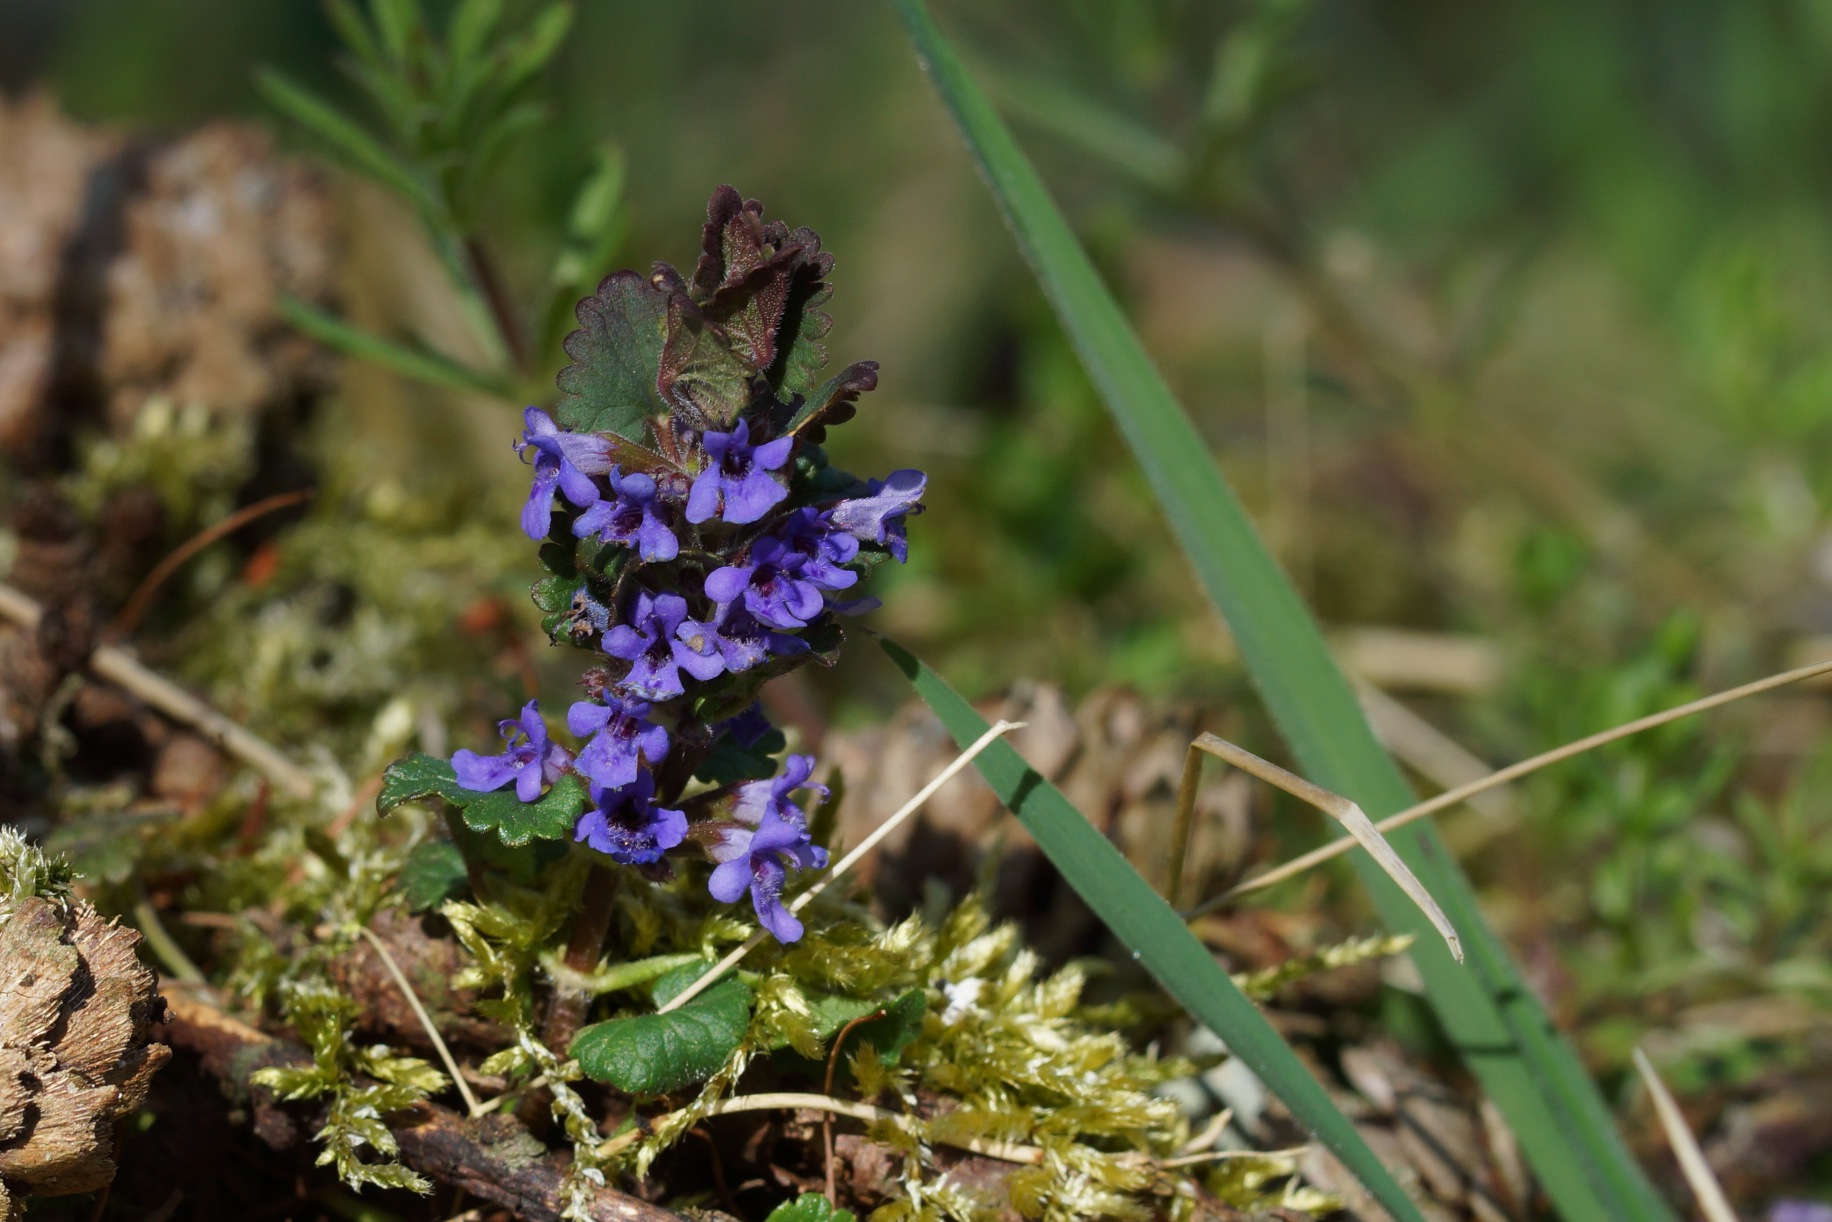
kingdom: Plantae
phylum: Tracheophyta
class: Magnoliopsida
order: Lamiales
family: Lamiaceae
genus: Glechoma
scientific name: Glechoma hederacea
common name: Korsknap
